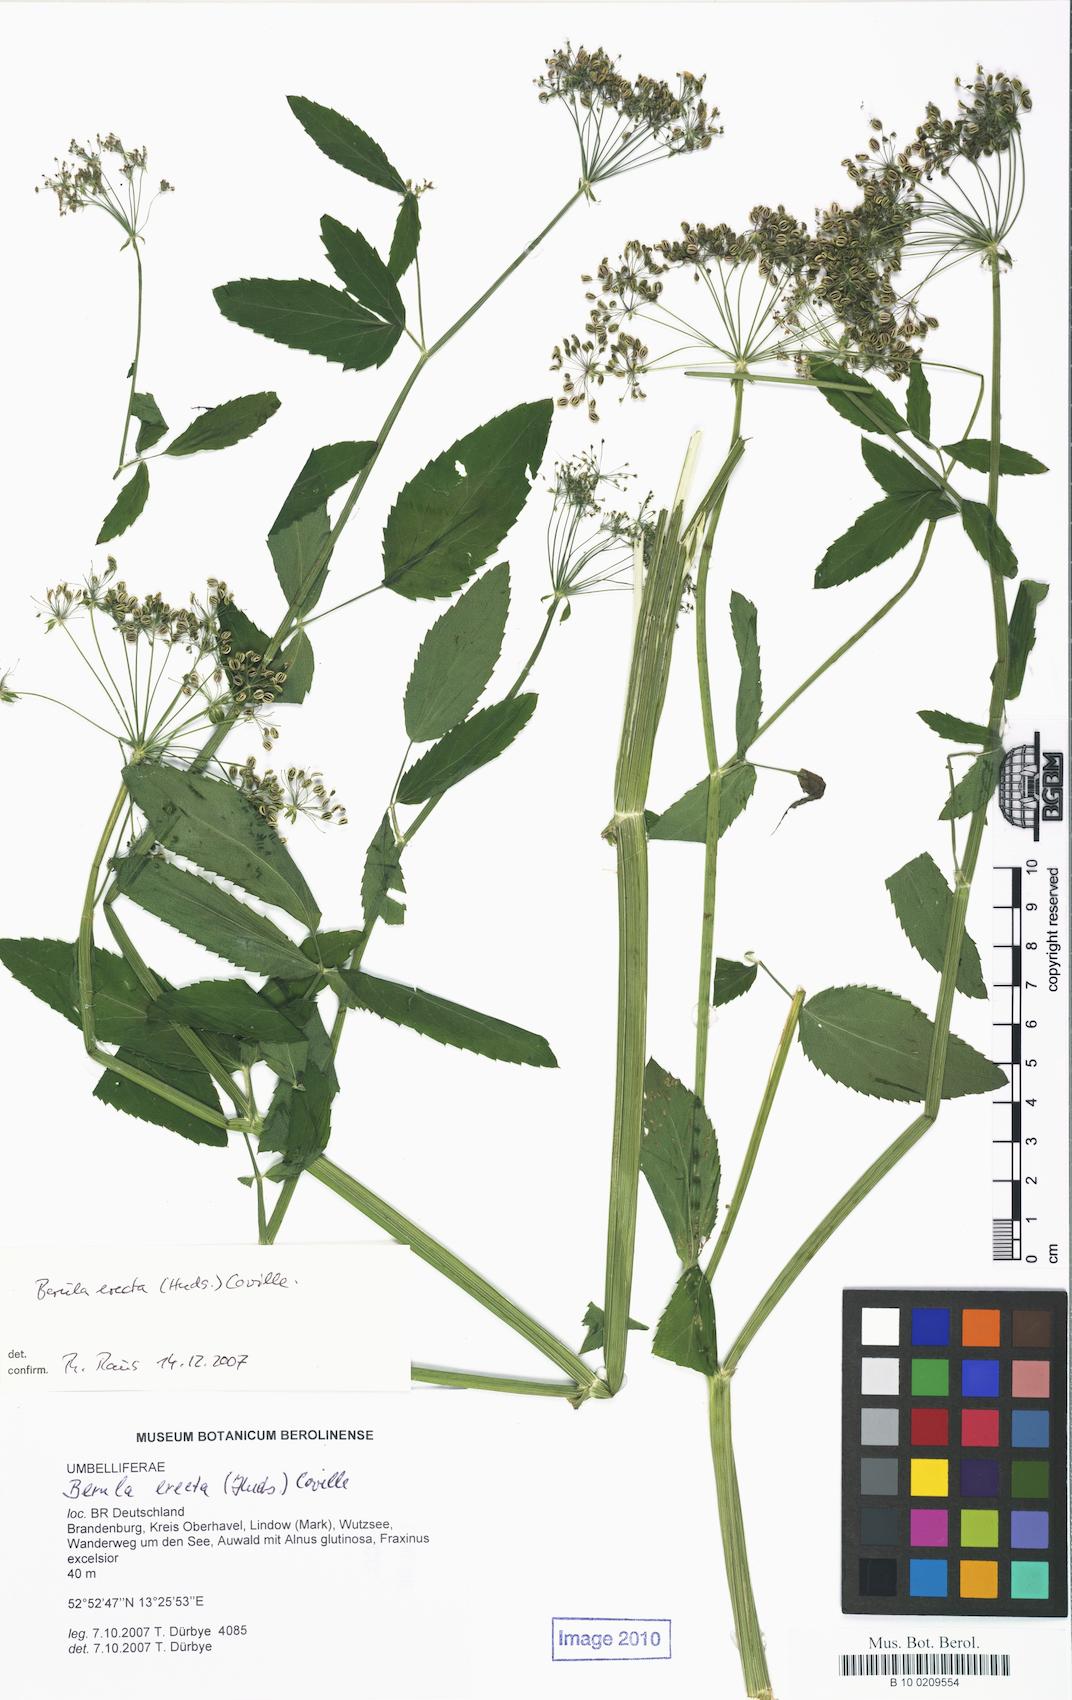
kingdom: Plantae
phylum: Tracheophyta
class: Magnoliopsida
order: Apiales
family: Apiaceae
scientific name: Apiaceae
